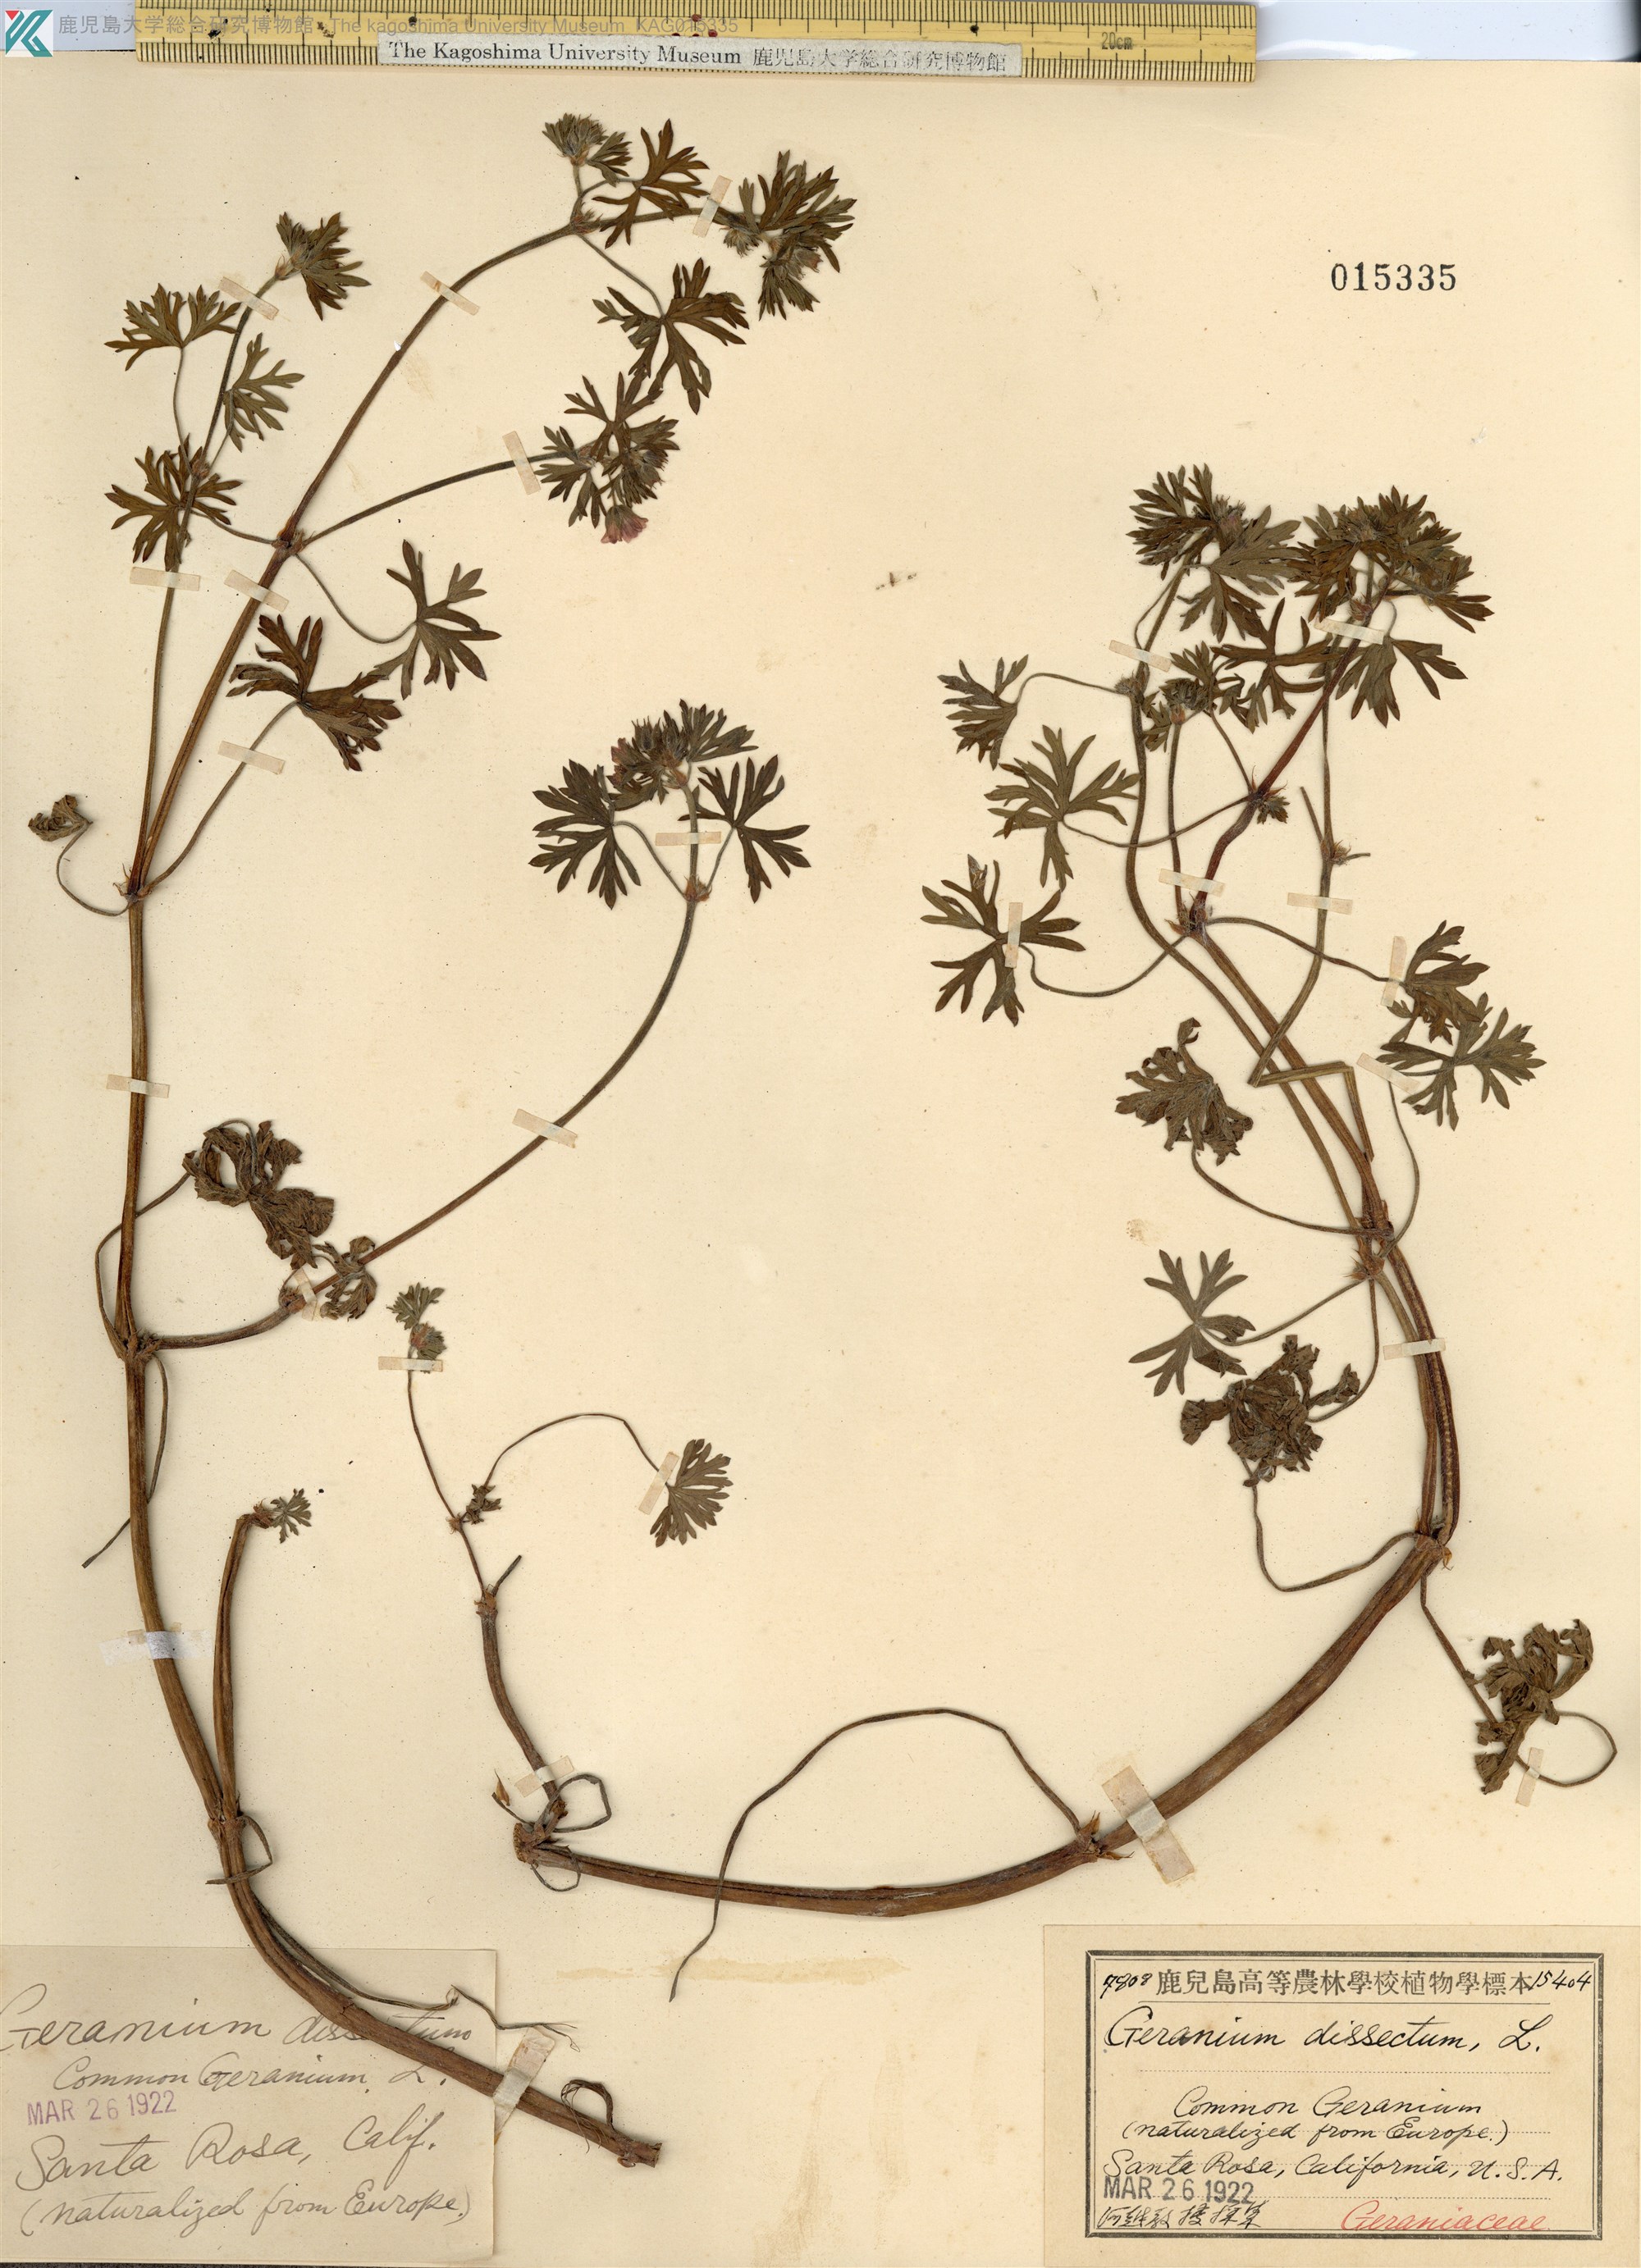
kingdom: Plantae
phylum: Tracheophyta
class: Magnoliopsida
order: Geraniales
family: Geraniaceae
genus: Geranium
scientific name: Geranium dissectum
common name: Cut-leaved crane's-bill
